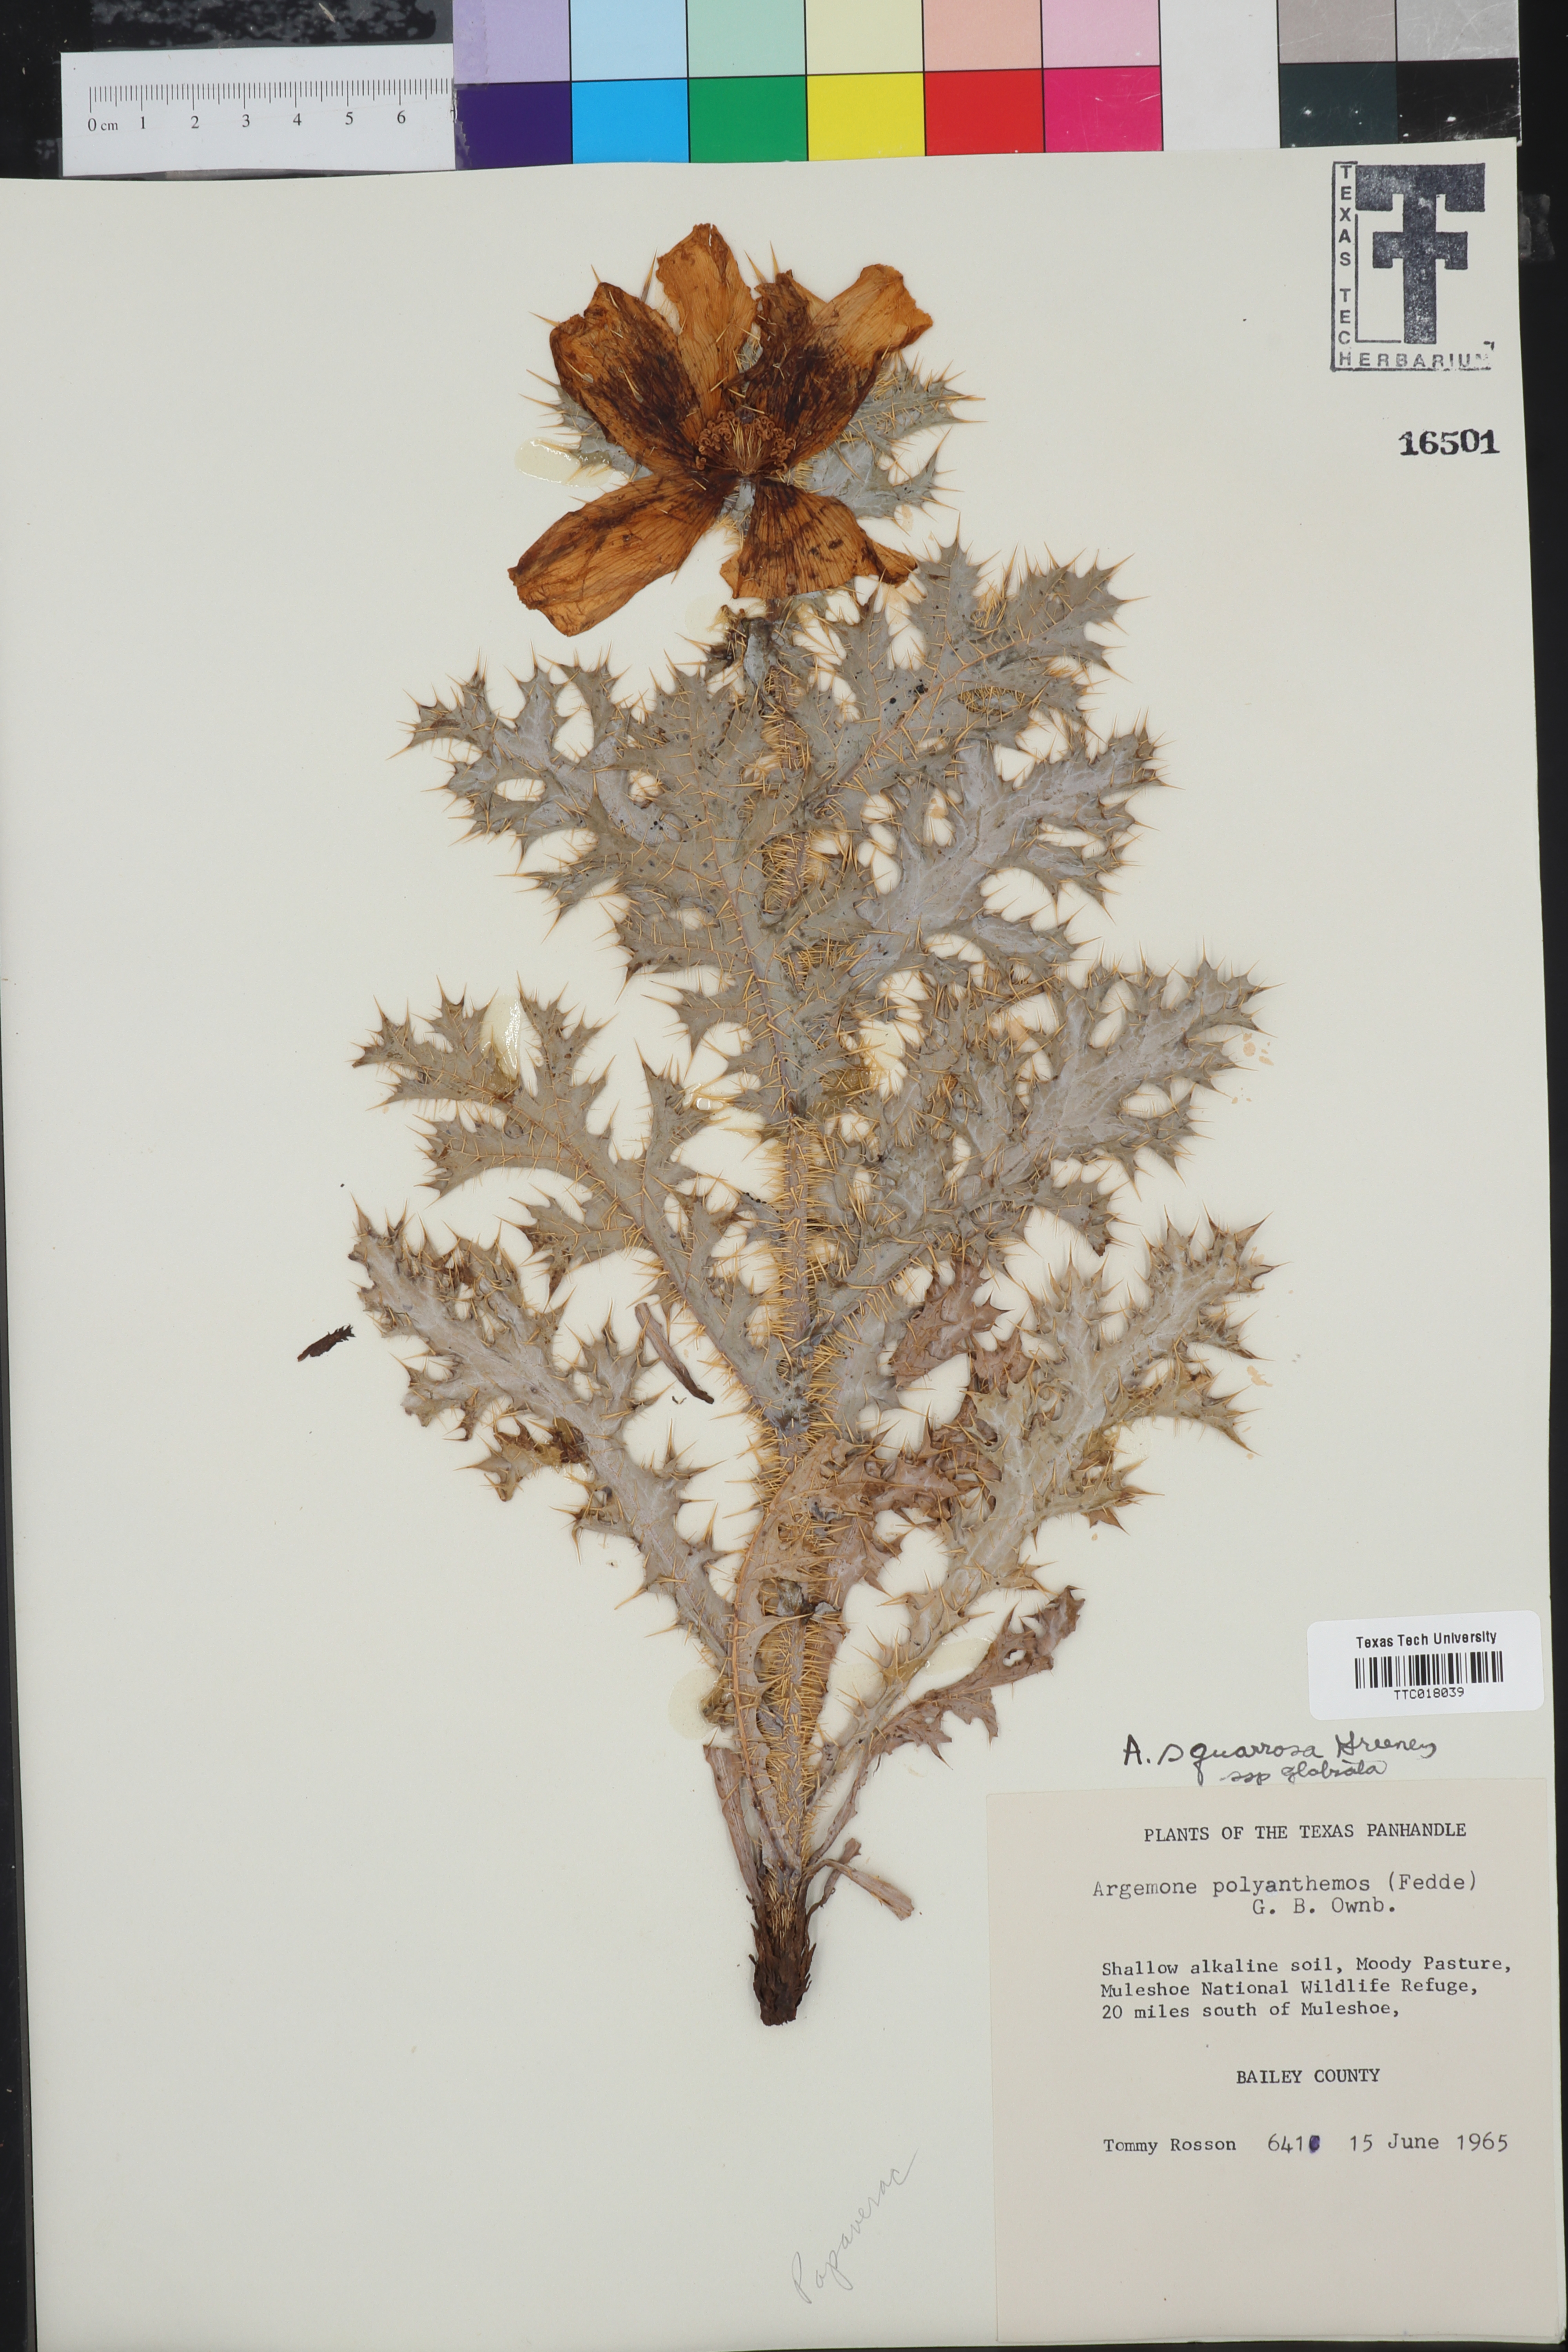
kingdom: Plantae
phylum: Tracheophyta
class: Magnoliopsida
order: Ranunculales
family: Papaveraceae
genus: Argemone
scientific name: Argemone squarrosa
